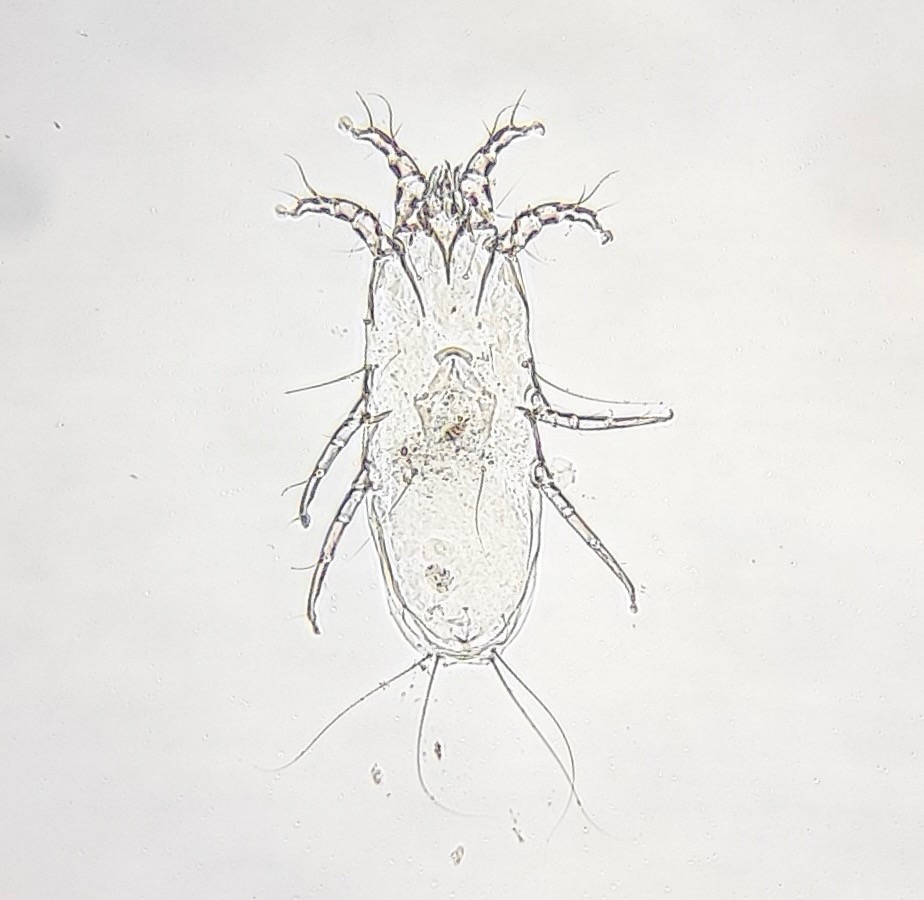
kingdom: Animalia
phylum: Arthropoda
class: Arachnida
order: Sarcoptiformes
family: Xolalgidae
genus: Gymnalloptes
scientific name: Gymnalloptes pallens
